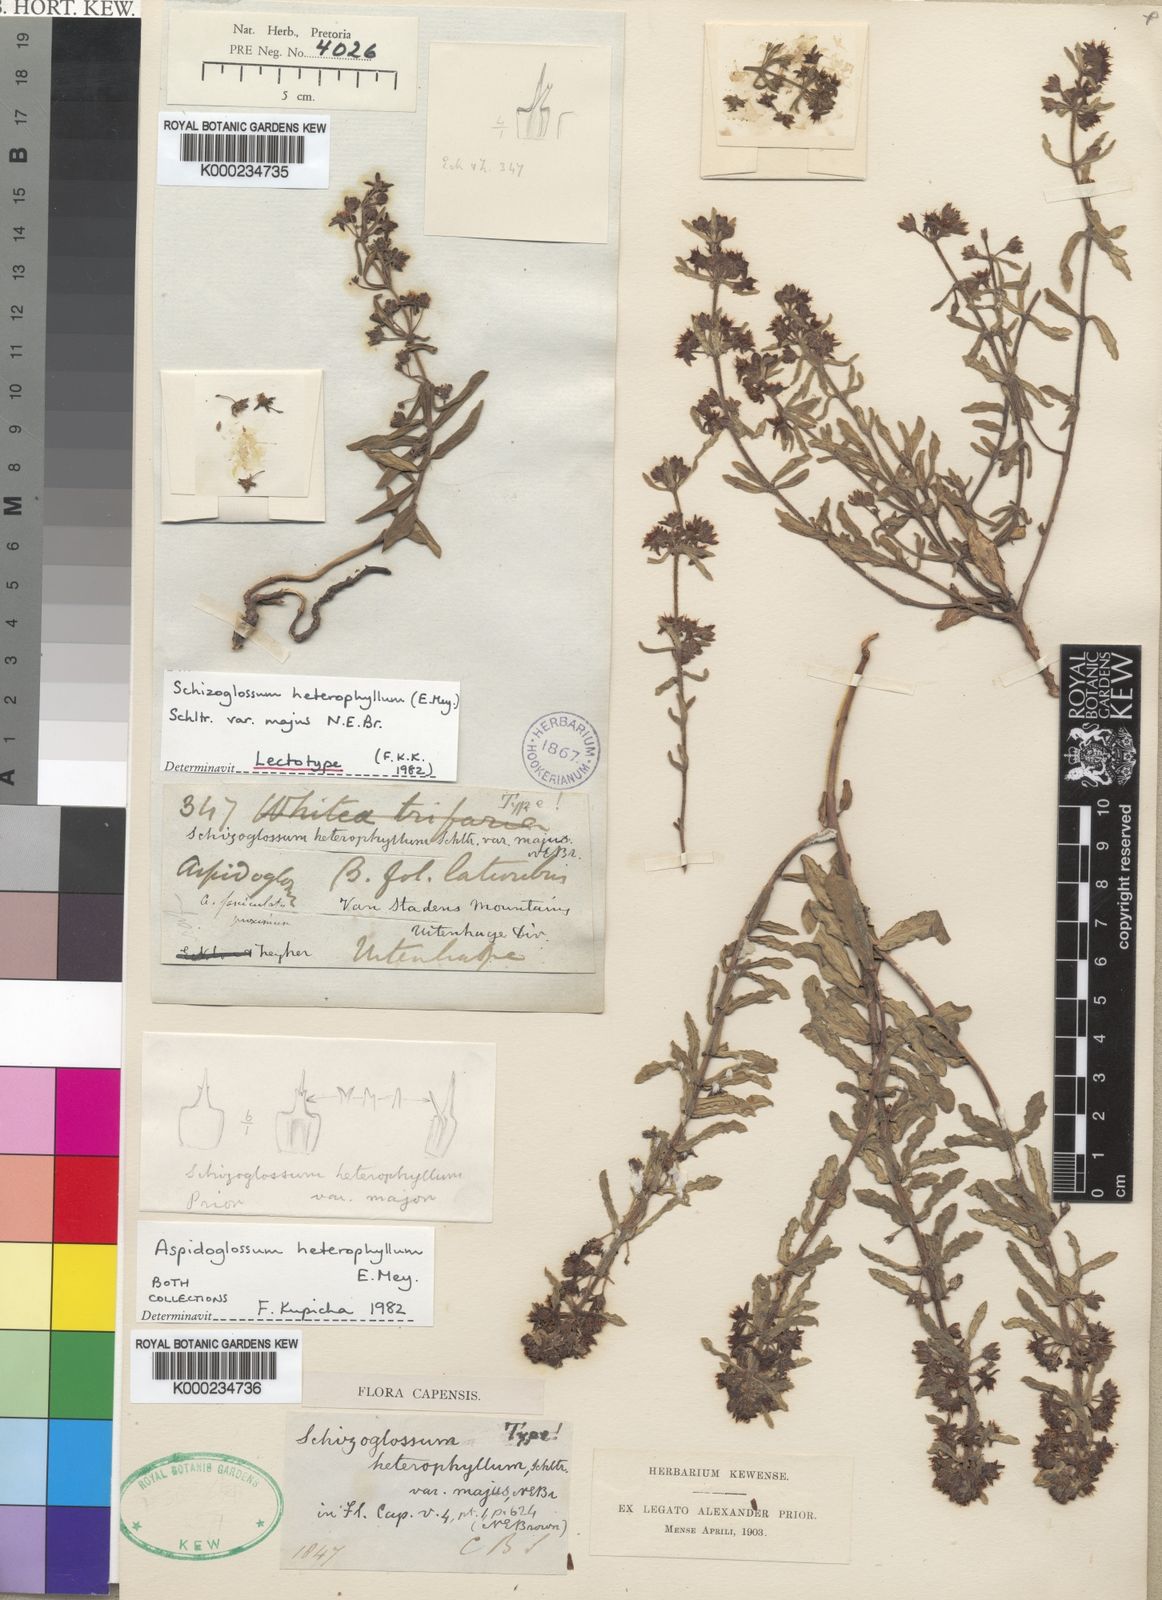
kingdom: Plantae
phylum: Tracheophyta
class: Magnoliopsida
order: Gentianales
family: Apocynaceae
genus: Aspidoglossum
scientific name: Aspidoglossum heterophyllum
